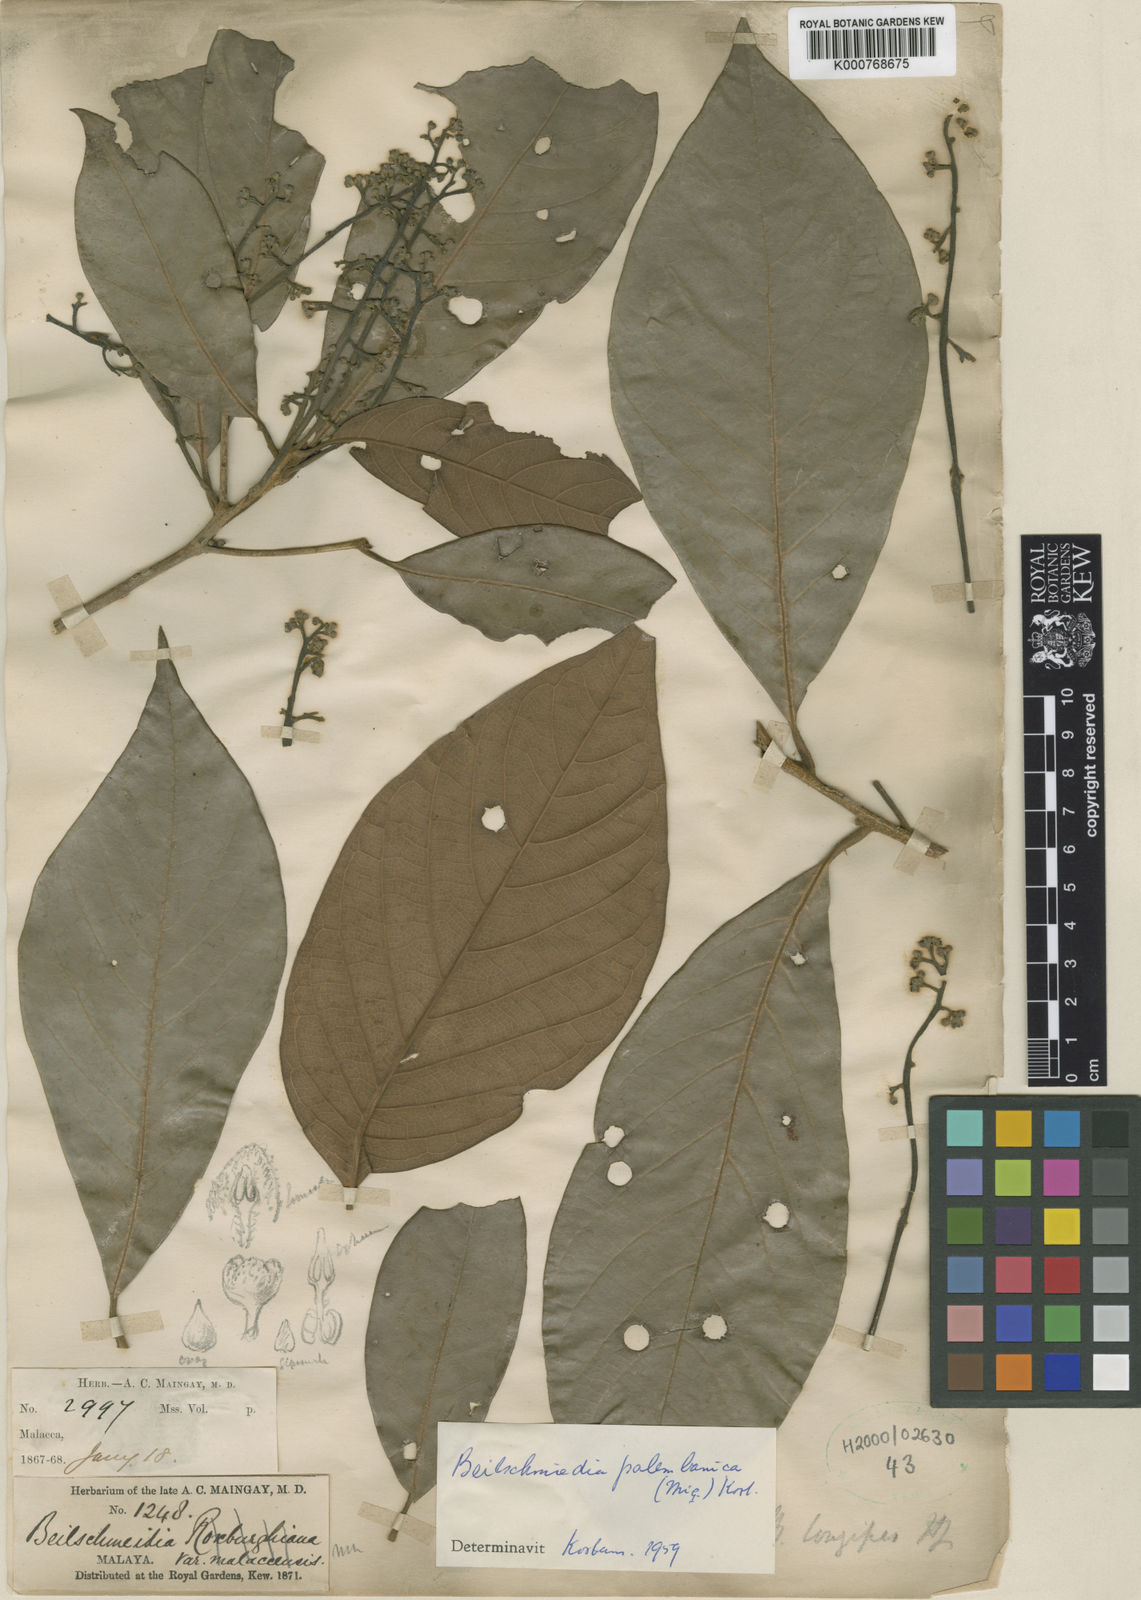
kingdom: Plantae
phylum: Tracheophyta
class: Magnoliopsida
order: Laurales
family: Lauraceae
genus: Beilschmiedia
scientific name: Beilschmiedia palembanica
